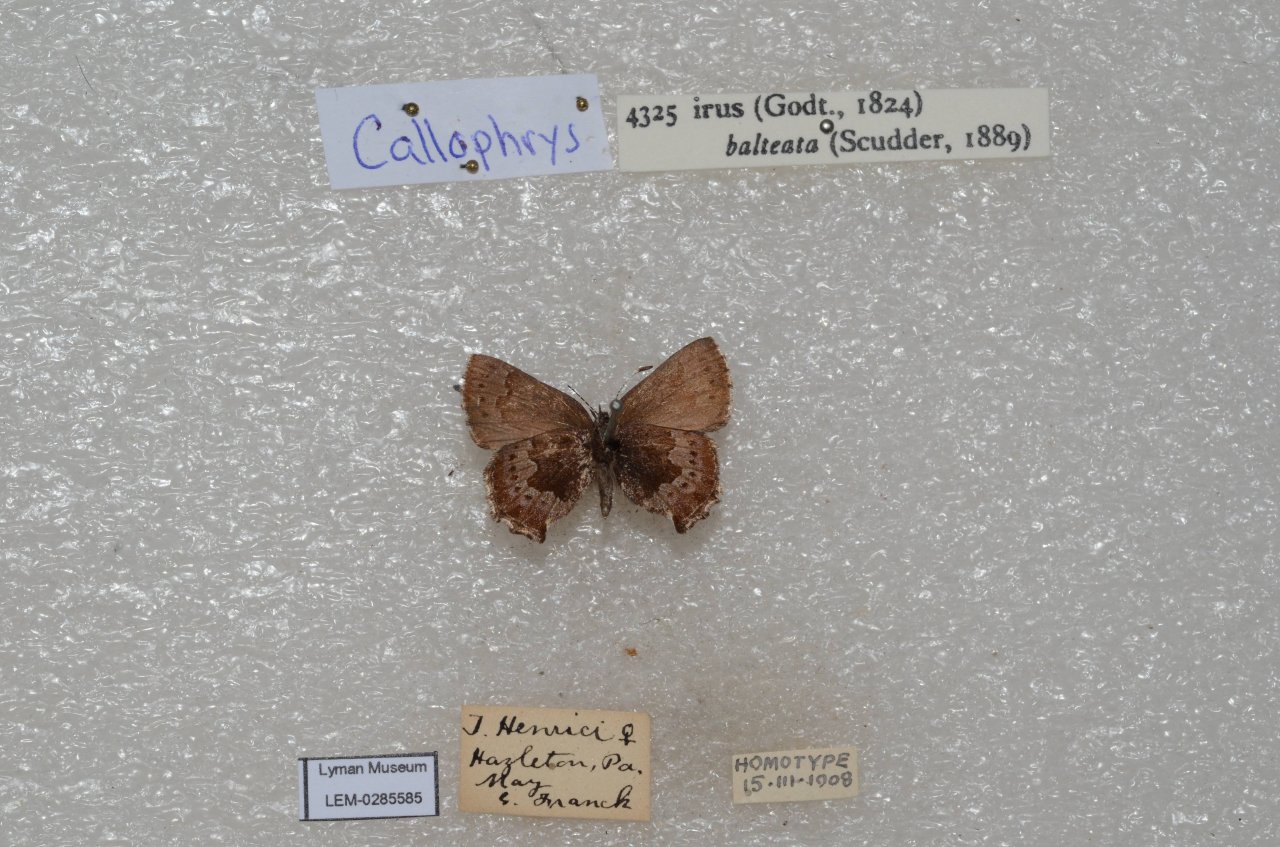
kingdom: Animalia
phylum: Arthropoda
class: Insecta
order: Lepidoptera
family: Lycaenidae
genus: Thecla
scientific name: Thecla irus
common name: Frosted Elfin
